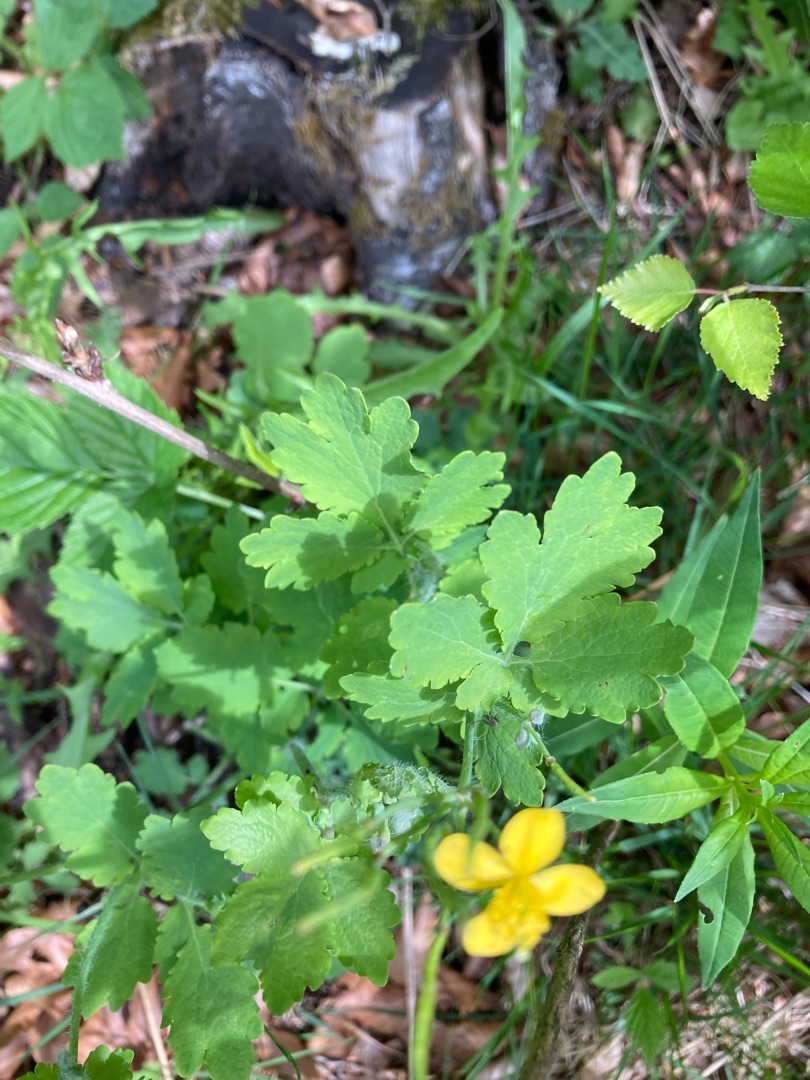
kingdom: Plantae
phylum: Tracheophyta
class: Magnoliopsida
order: Ranunculales
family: Papaveraceae
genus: Chelidonium
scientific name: Chelidonium majus
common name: Svaleurt
